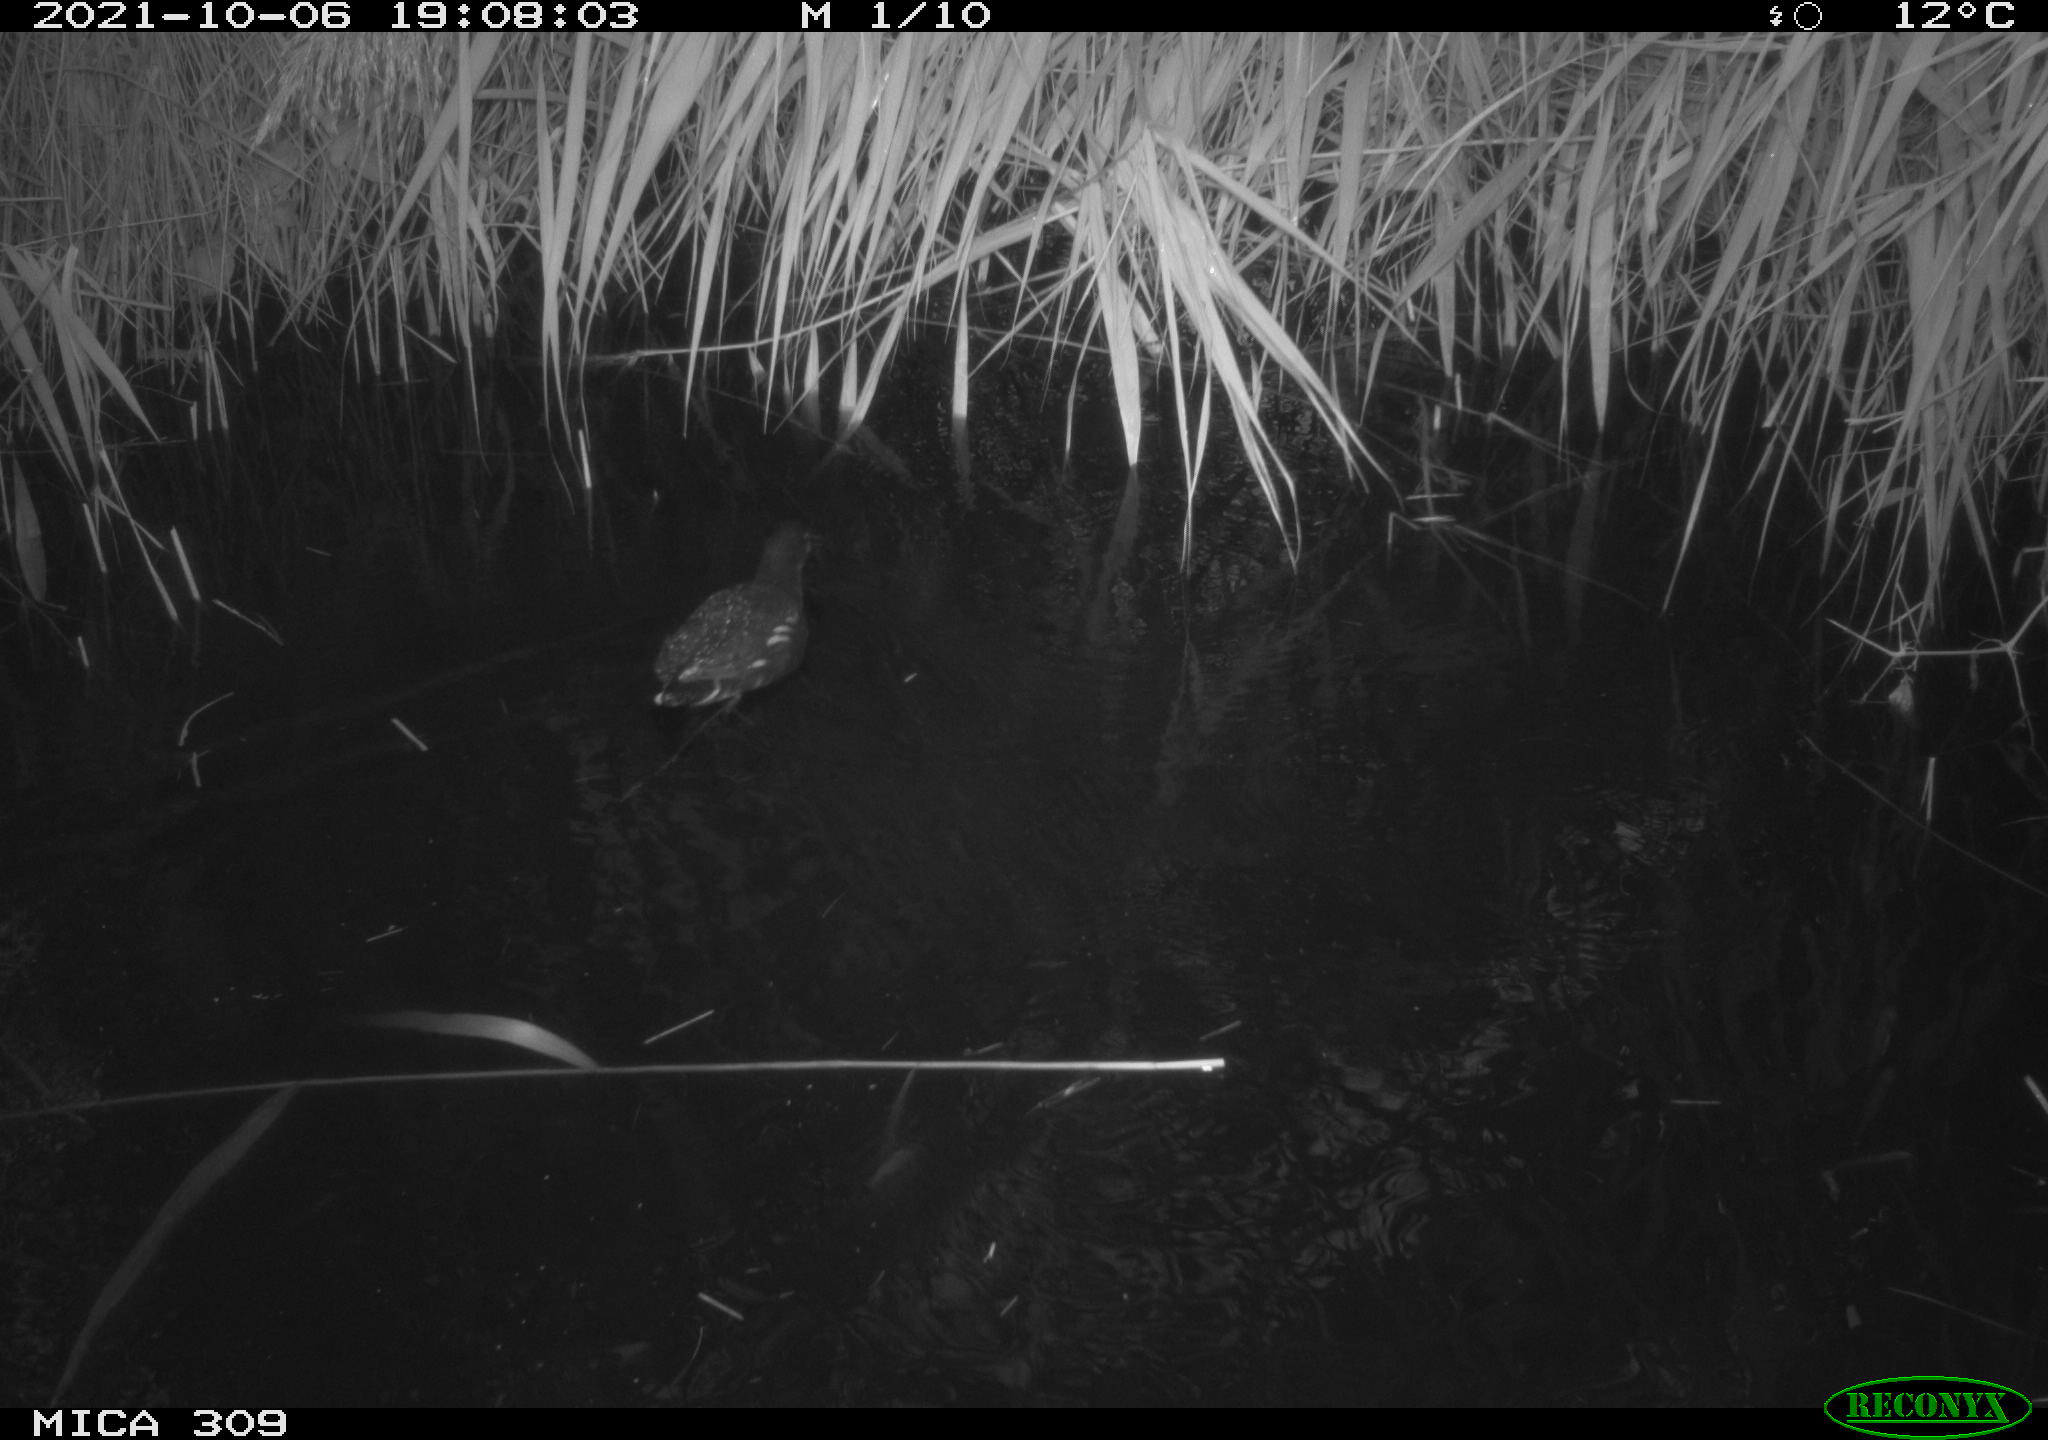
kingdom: Animalia
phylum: Chordata
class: Aves
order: Gruiformes
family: Rallidae
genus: Gallinula
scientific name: Gallinula chloropus
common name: Common moorhen
